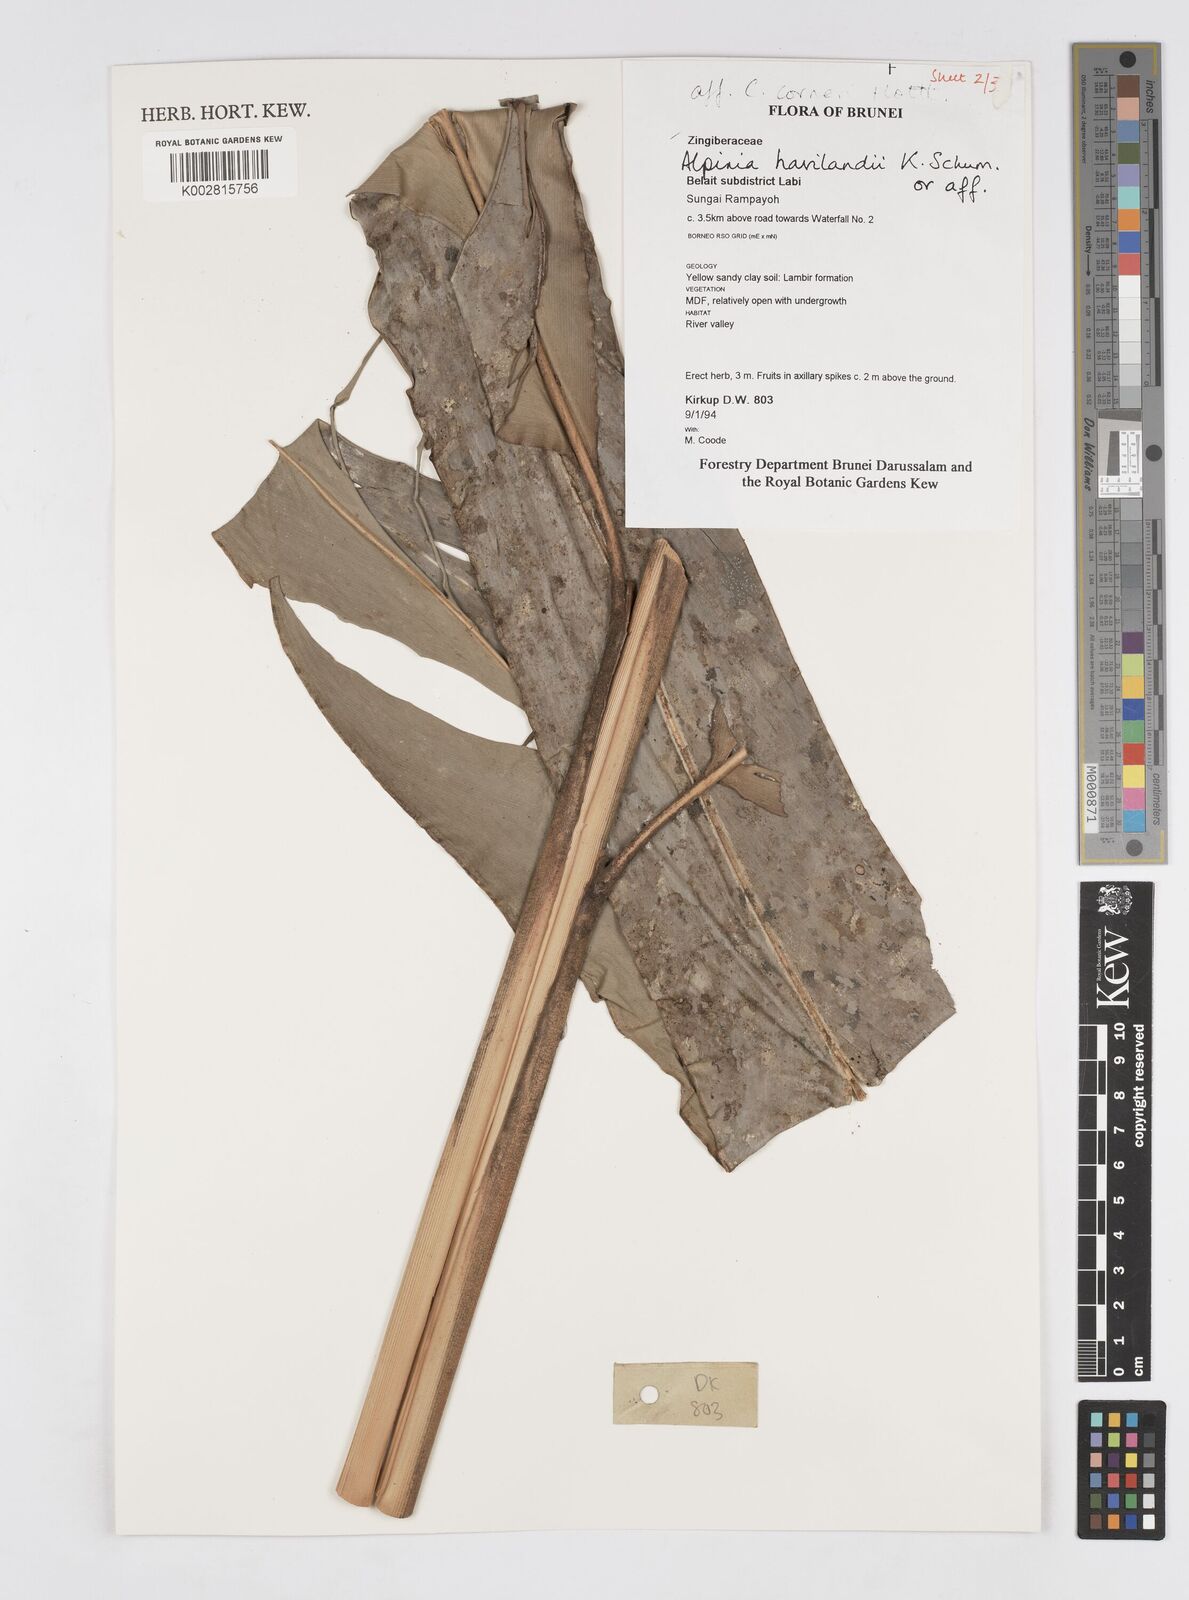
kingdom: Plantae
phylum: Tracheophyta
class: Liliopsida
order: Zingiberales
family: Zingiberaceae
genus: Alpinia
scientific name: Alpinia havilandii
